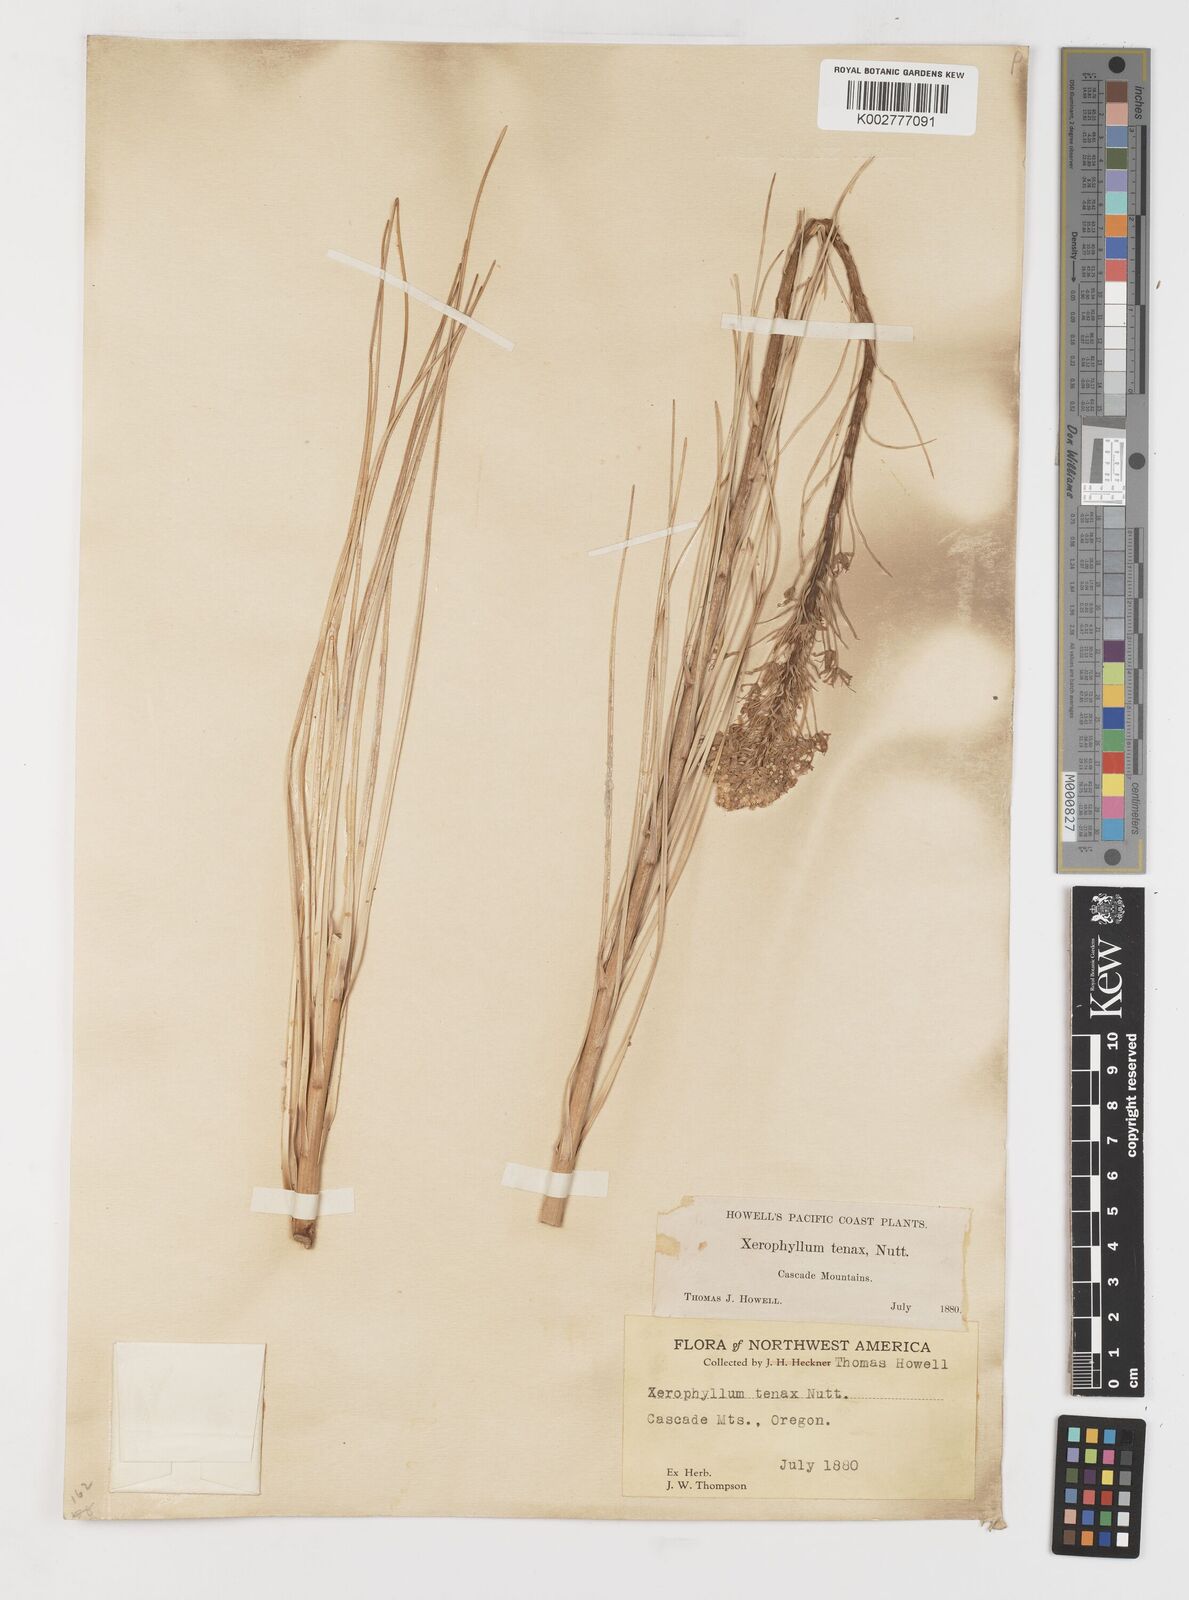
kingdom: Plantae
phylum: Tracheophyta
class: Liliopsida
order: Liliales
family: Melanthiaceae
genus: Xerophyllum
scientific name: Xerophyllum tenax
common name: Bear-grass
